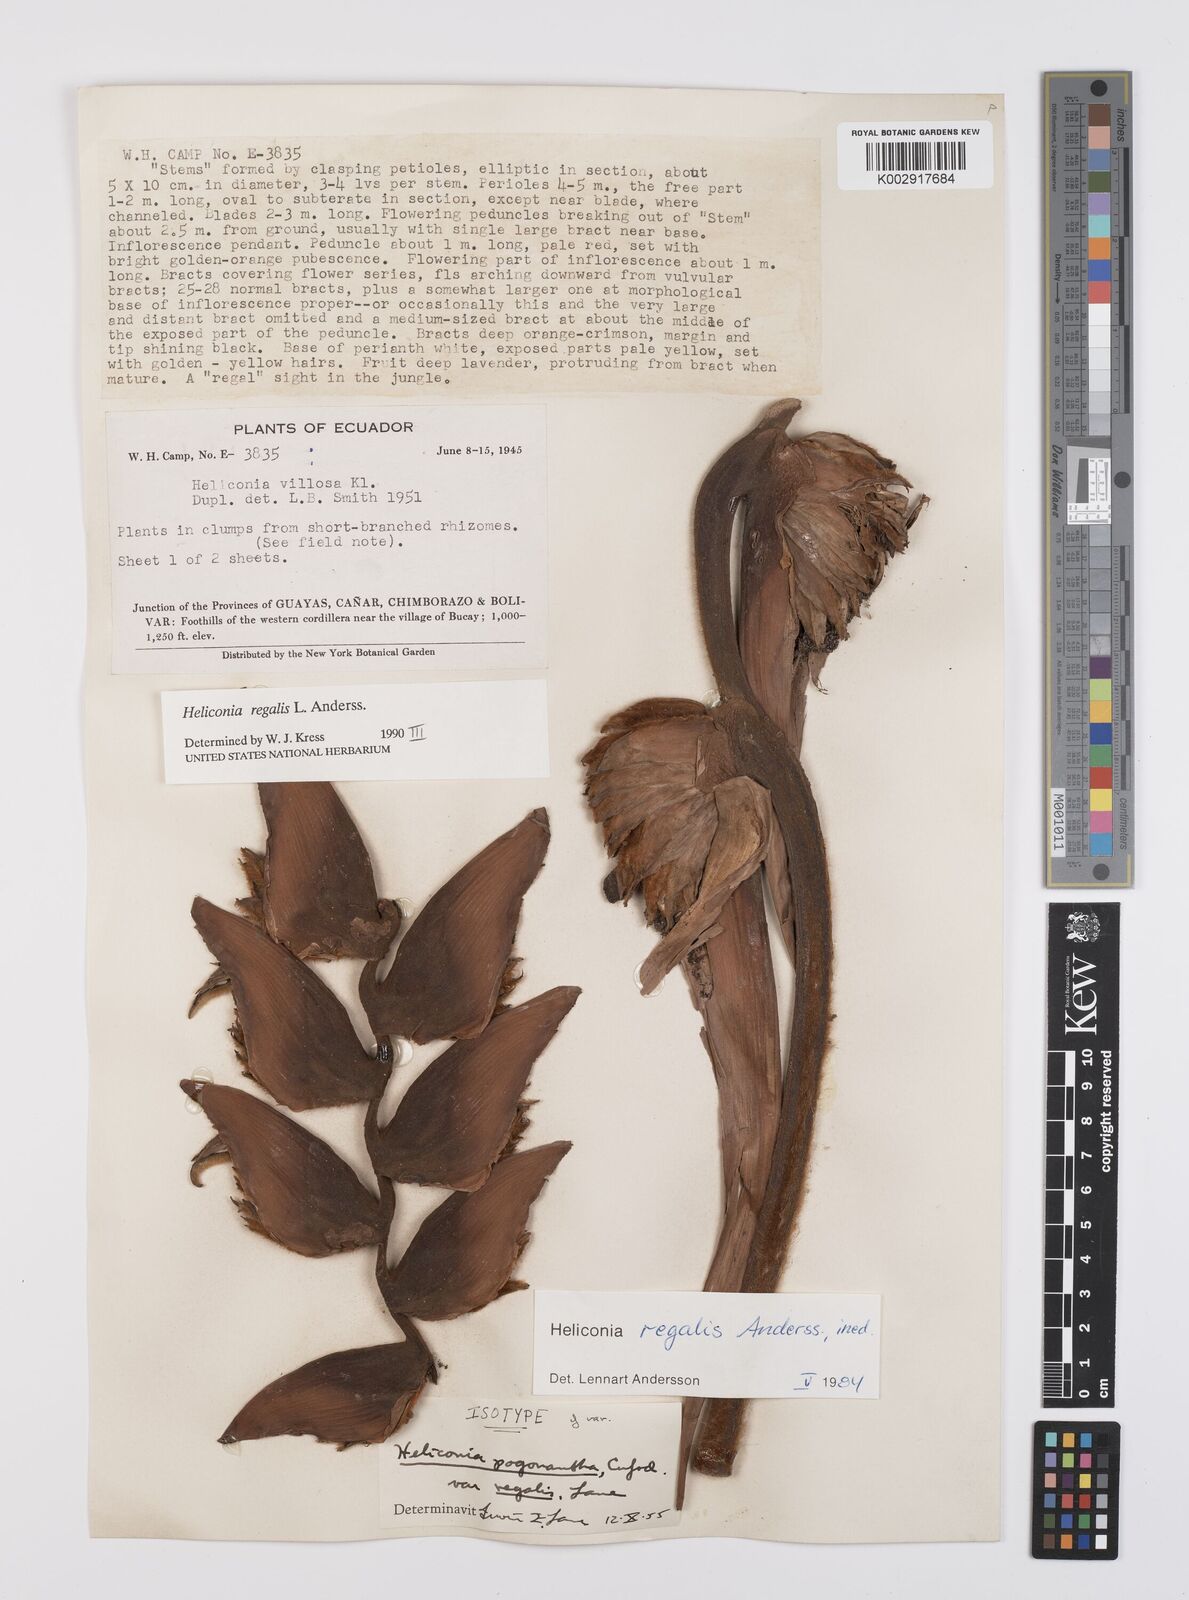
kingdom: Plantae
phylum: Tracheophyta
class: Liliopsida
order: Zingiberales
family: Heliconiaceae
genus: Heliconia
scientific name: Heliconia regalis
